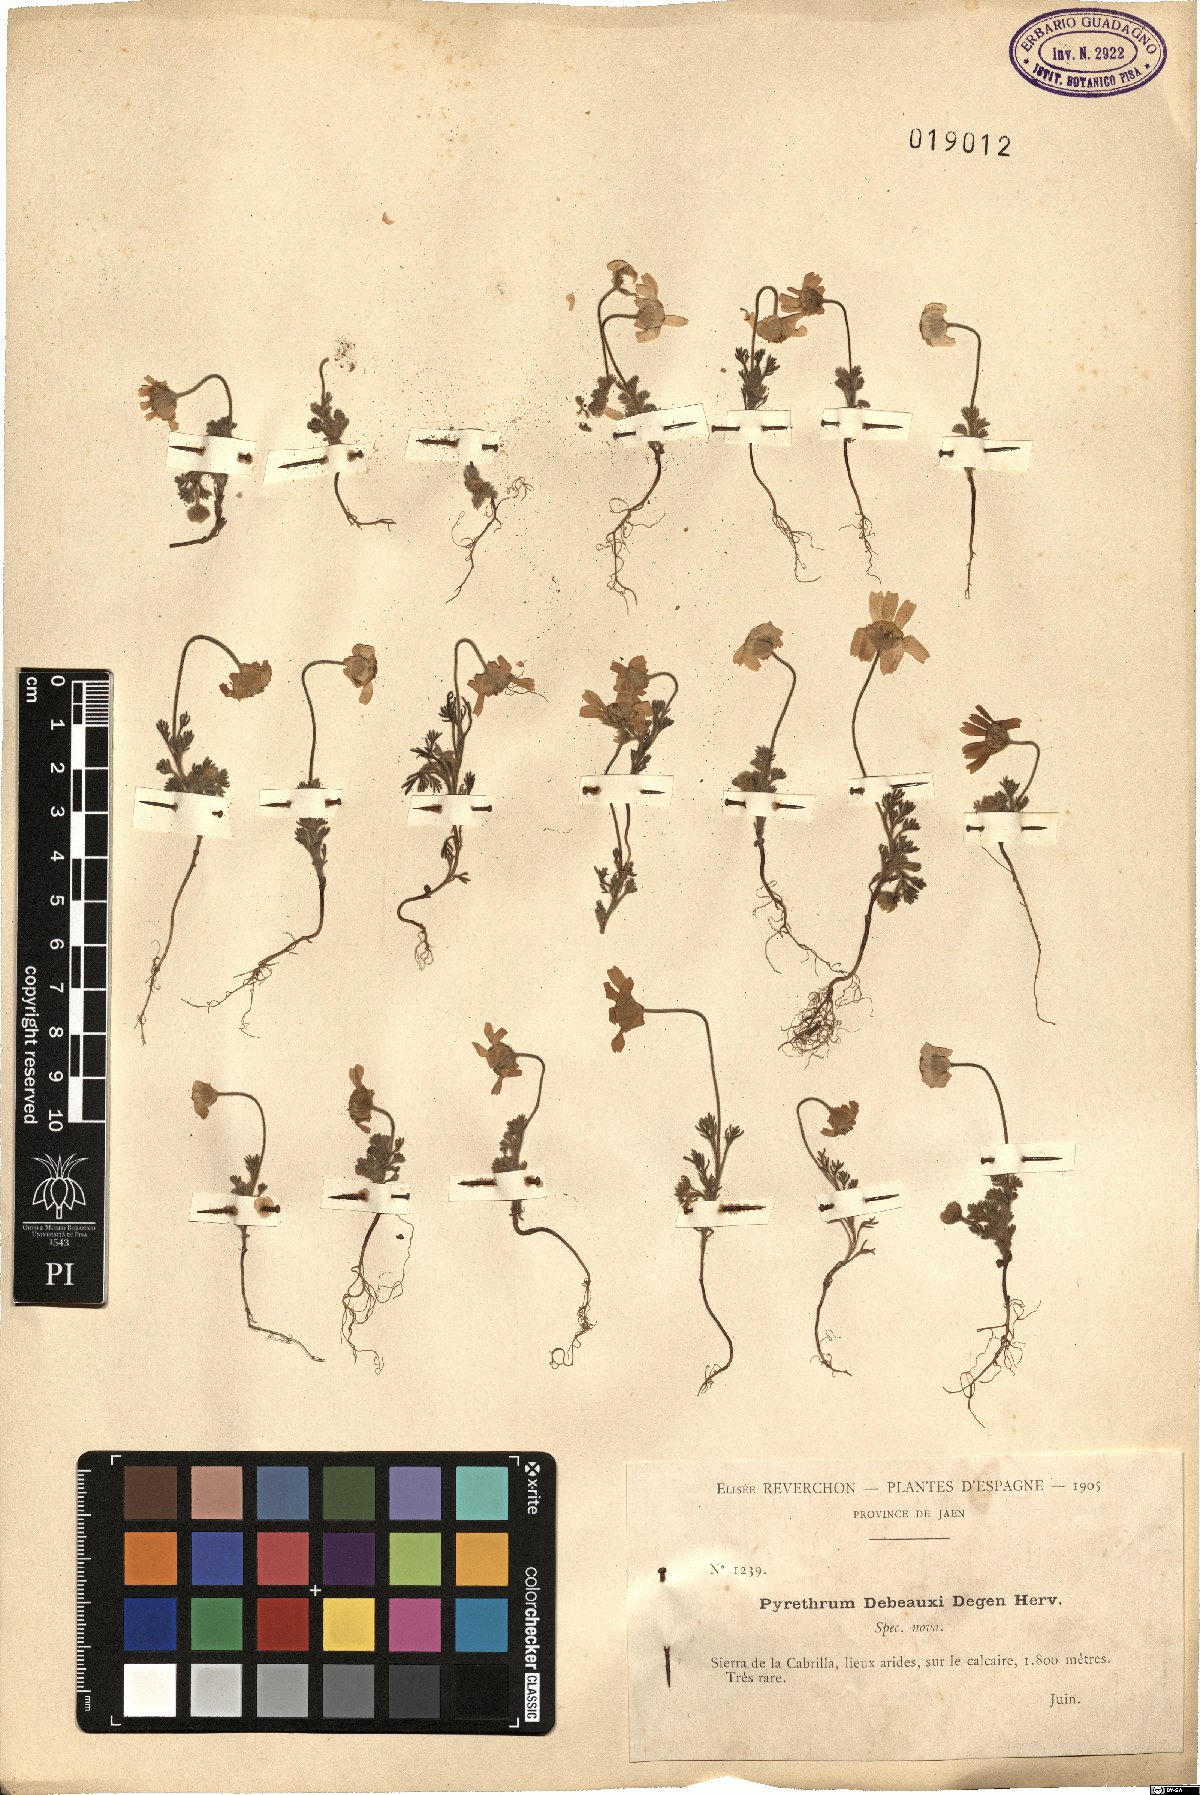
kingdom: Plantae
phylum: Tracheophyta
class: Magnoliopsida
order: Asterales
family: Asteraceae
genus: Castrilanthemum
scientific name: Castrilanthemum debeauxii
